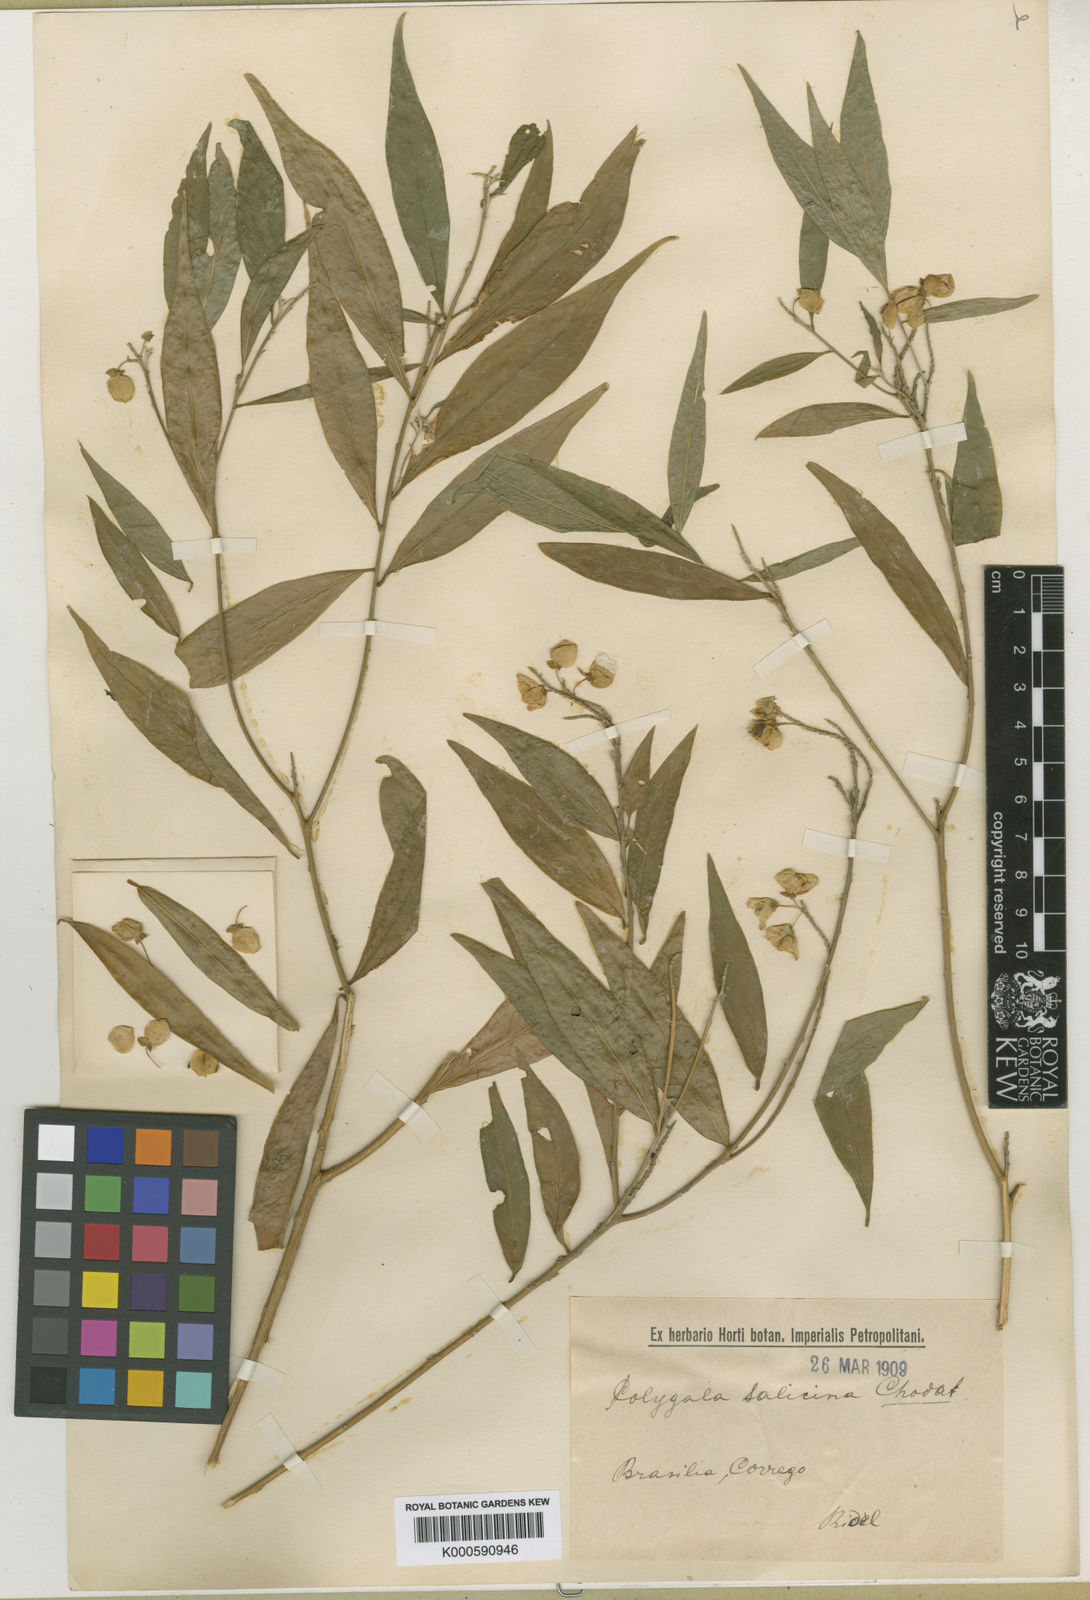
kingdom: Plantae
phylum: Tracheophyta
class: Magnoliopsida
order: Fabales
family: Polygalaceae
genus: Caamembeca
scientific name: Caamembeca oxyphylla
